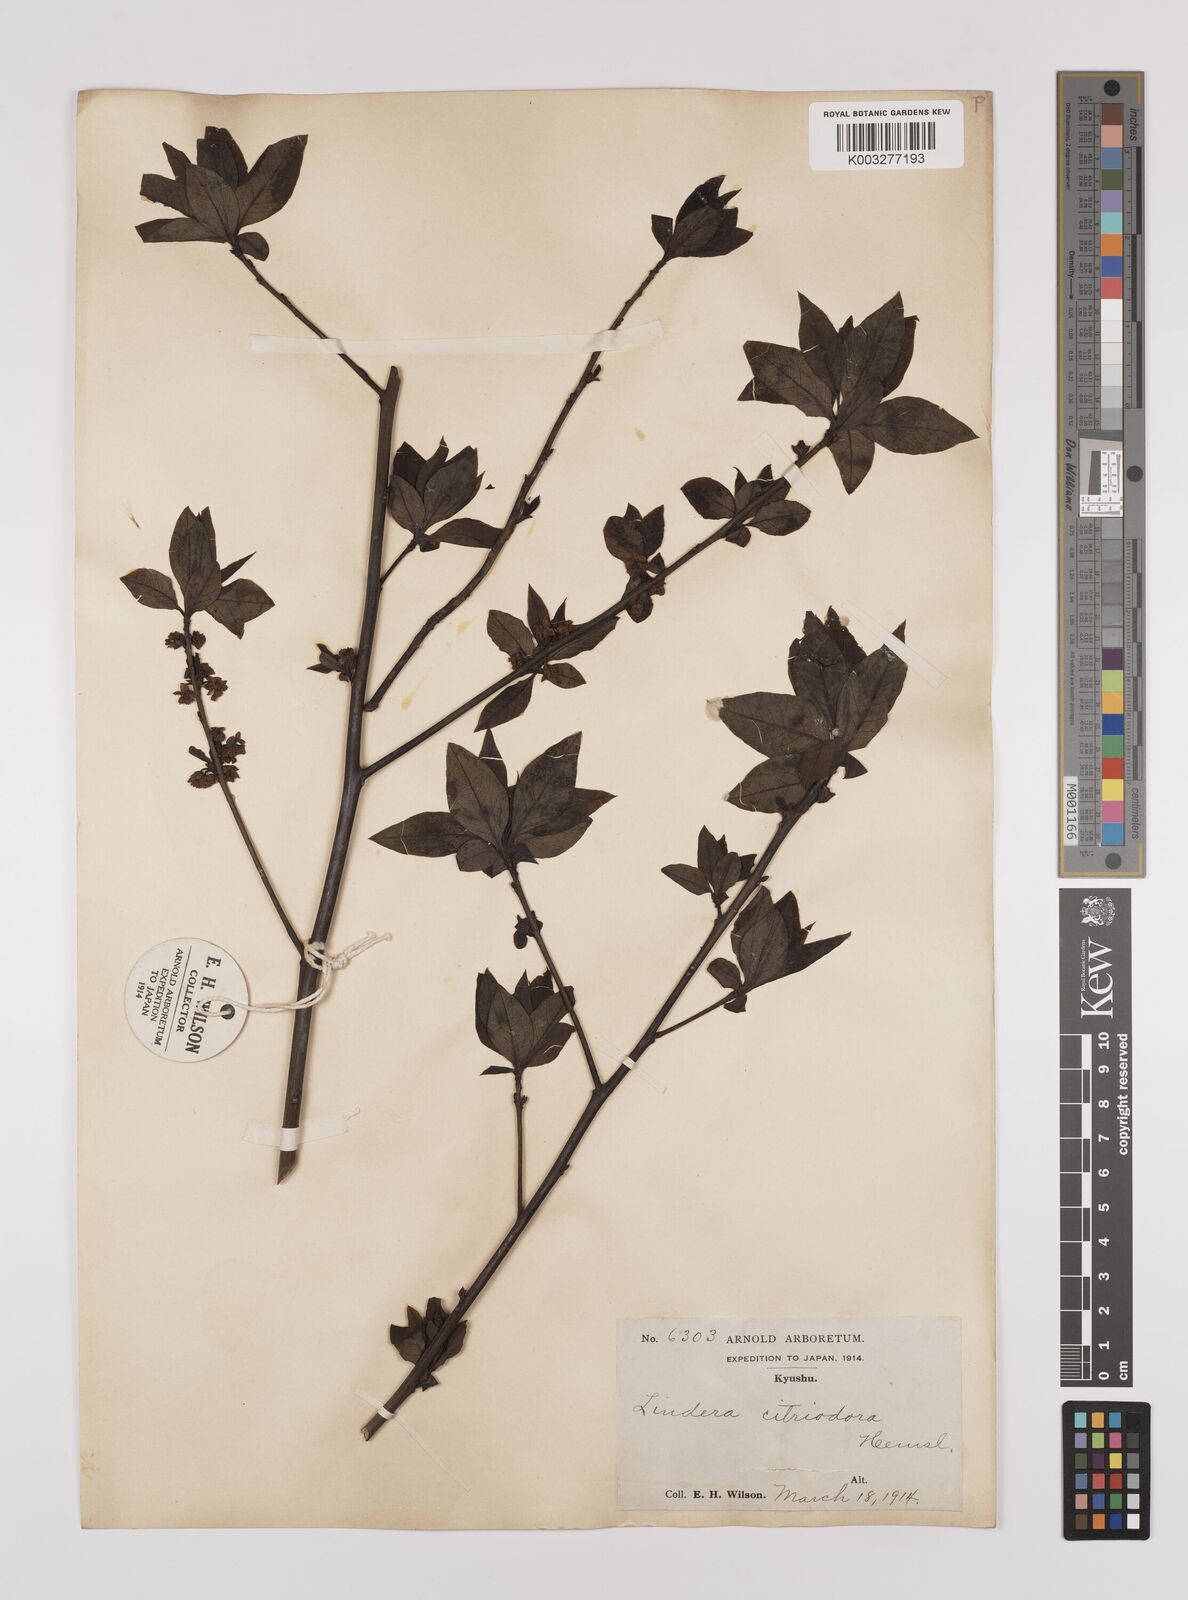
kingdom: Plantae
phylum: Tracheophyta
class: Magnoliopsida
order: Laurales
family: Lauraceae
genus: Lindera
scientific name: Lindera citriodora
